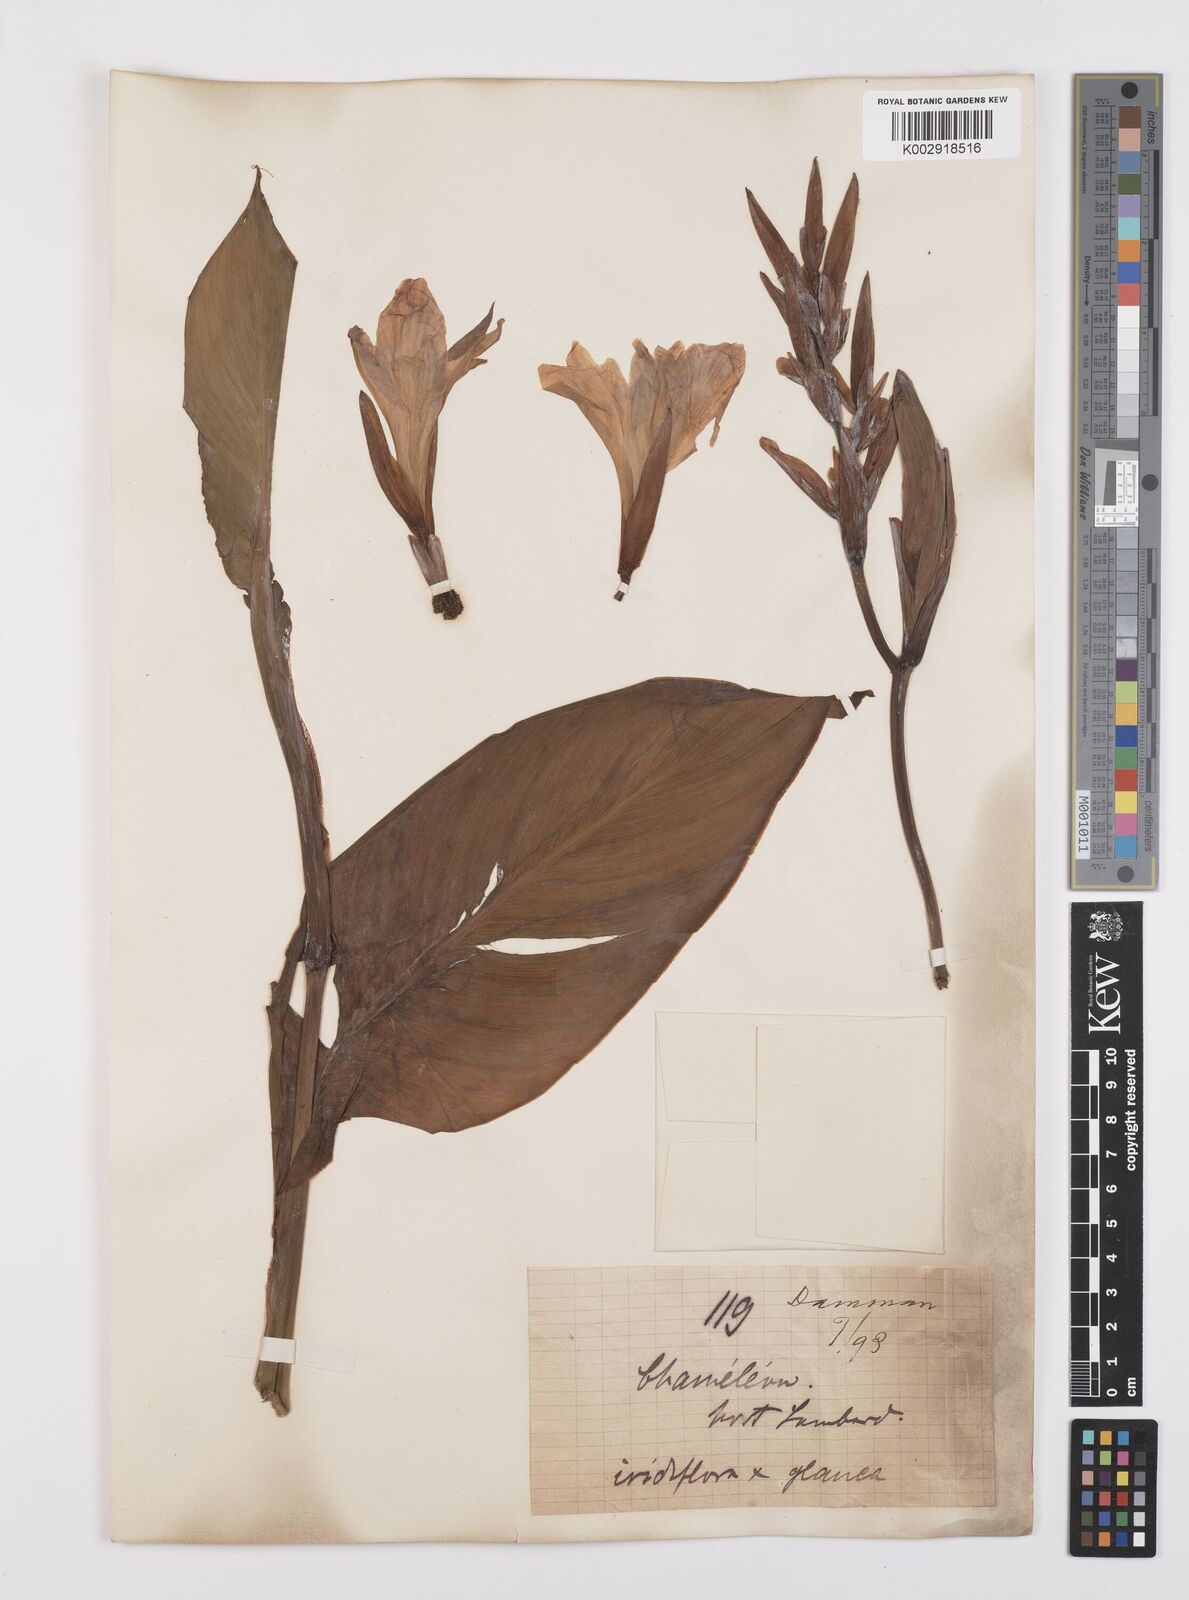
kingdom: Plantae
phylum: Tracheophyta
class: Liliopsida
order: Zingiberales
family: Cannaceae
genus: Canna
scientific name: Canna
